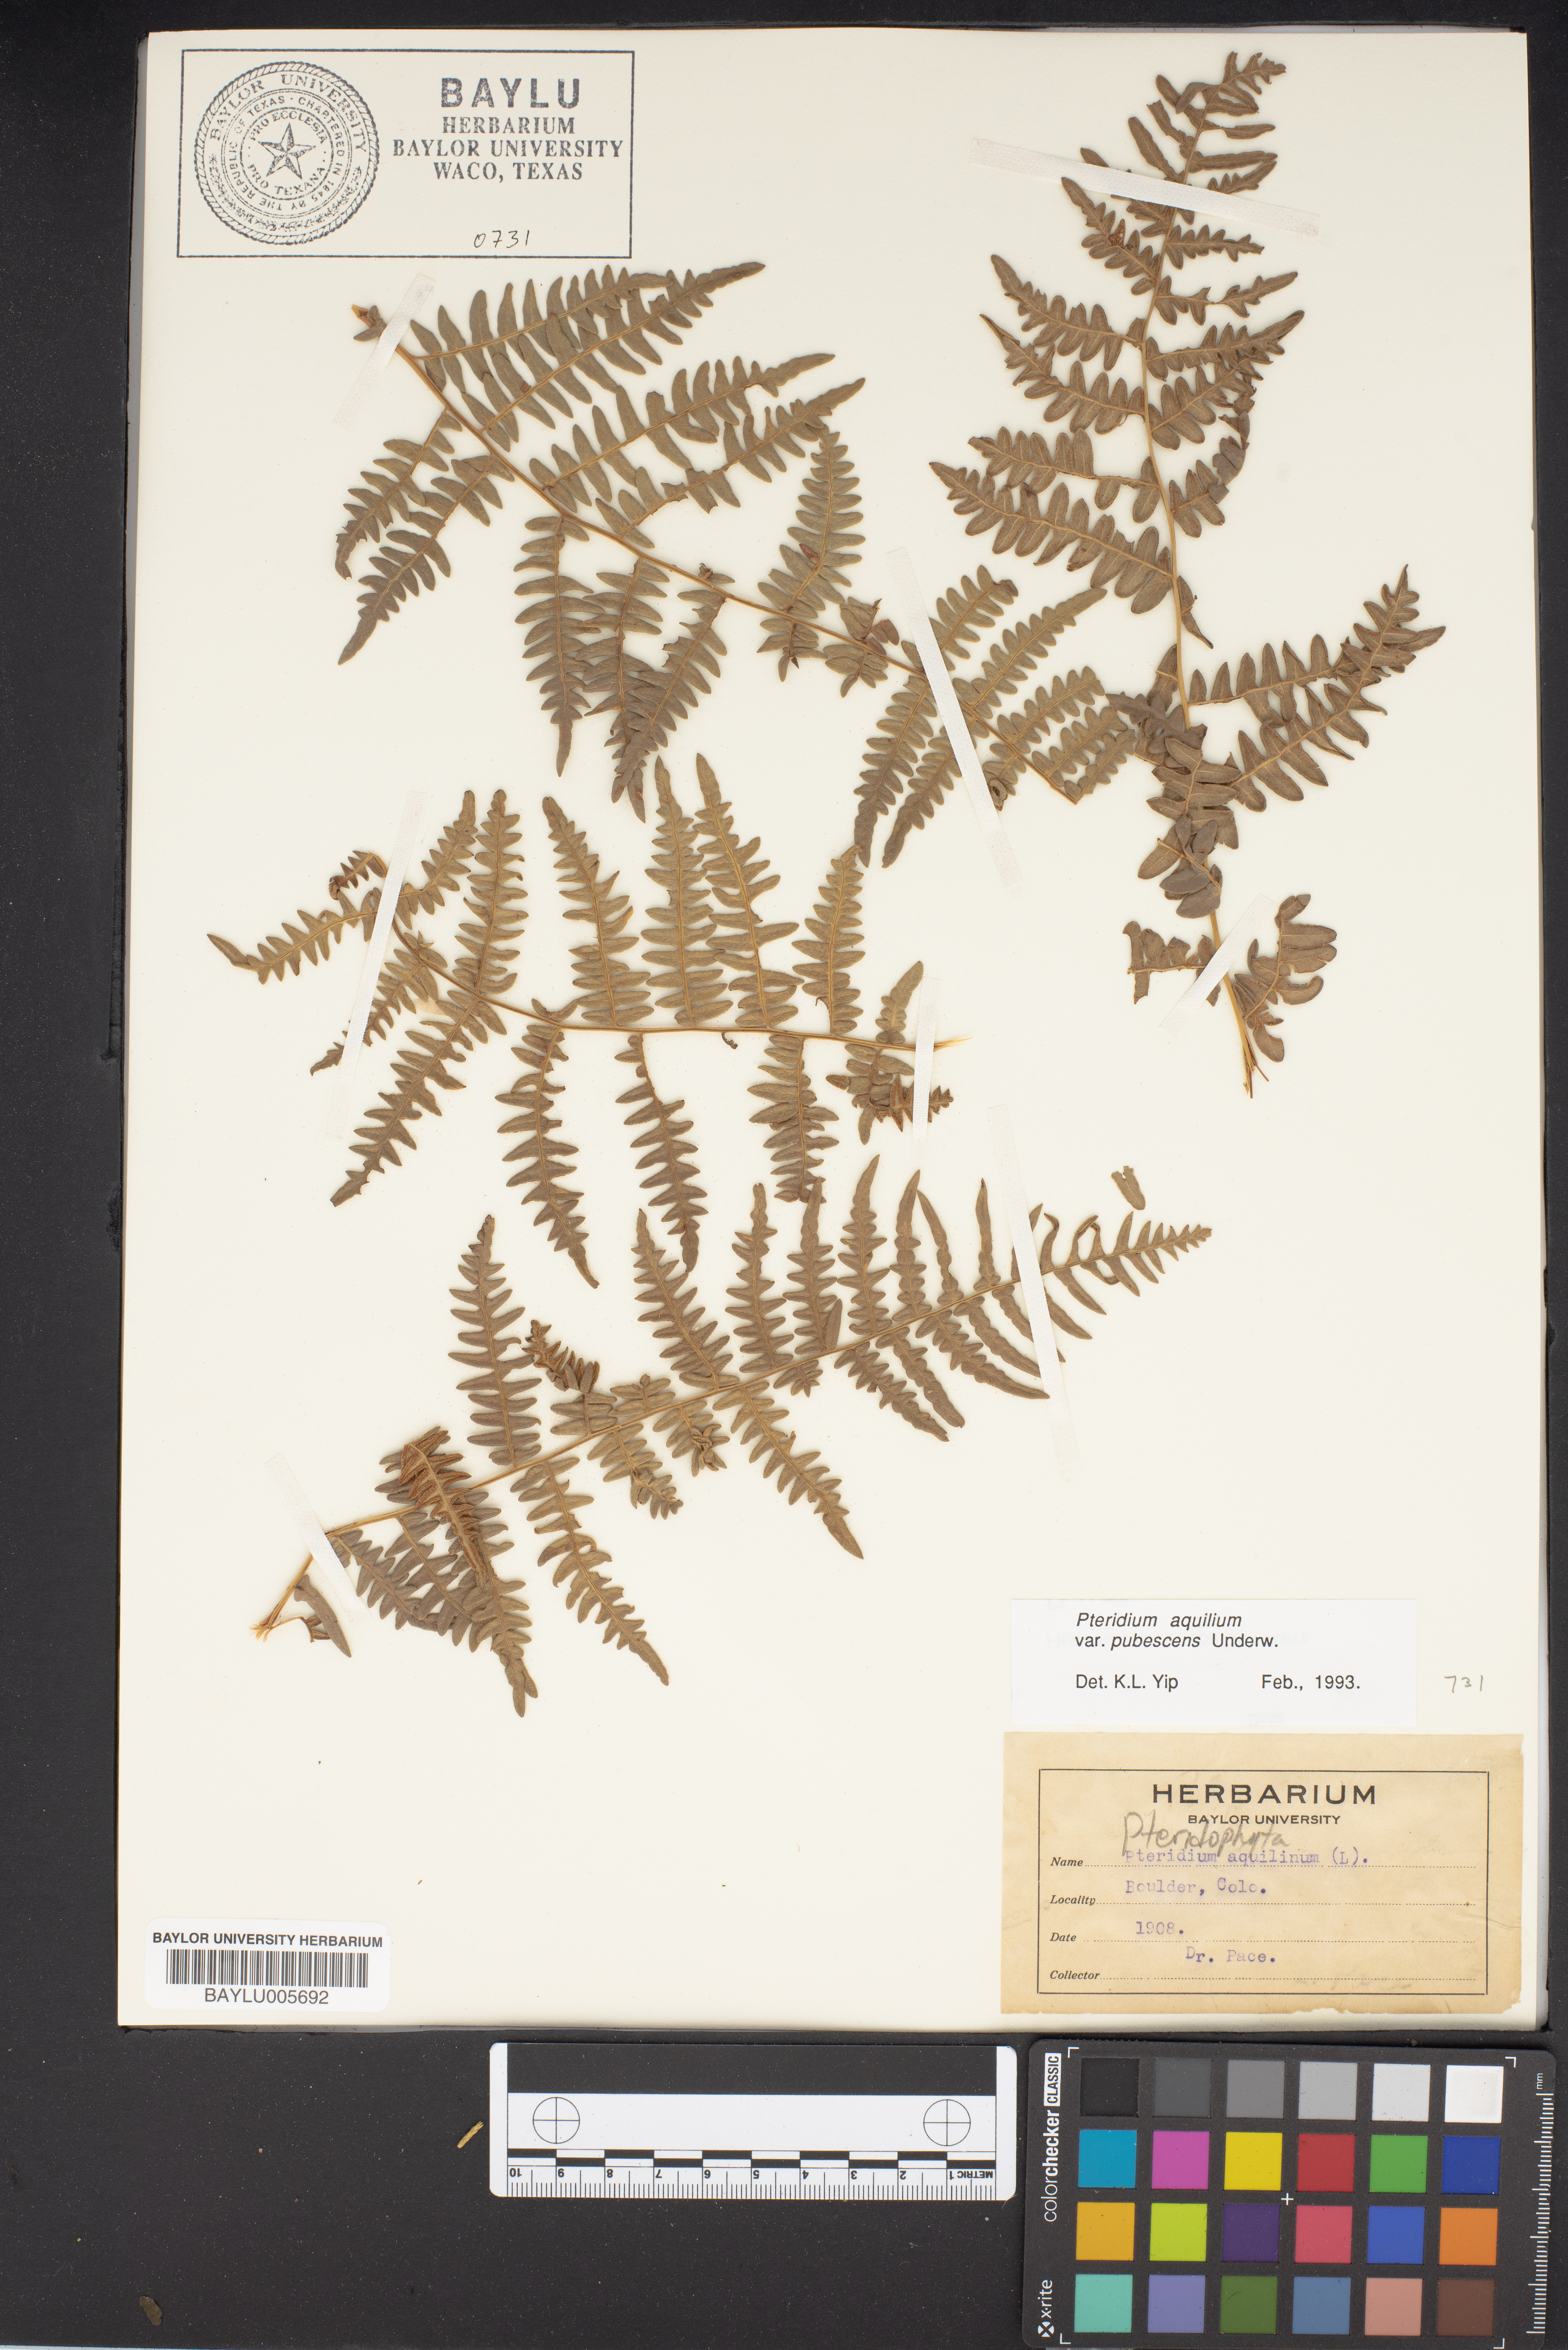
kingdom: Plantae
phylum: Tracheophyta
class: Polypodiopsida
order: Polypodiales
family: Dennstaedtiaceae
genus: Pteridium
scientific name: Pteridium aquilinum
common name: Bracken
